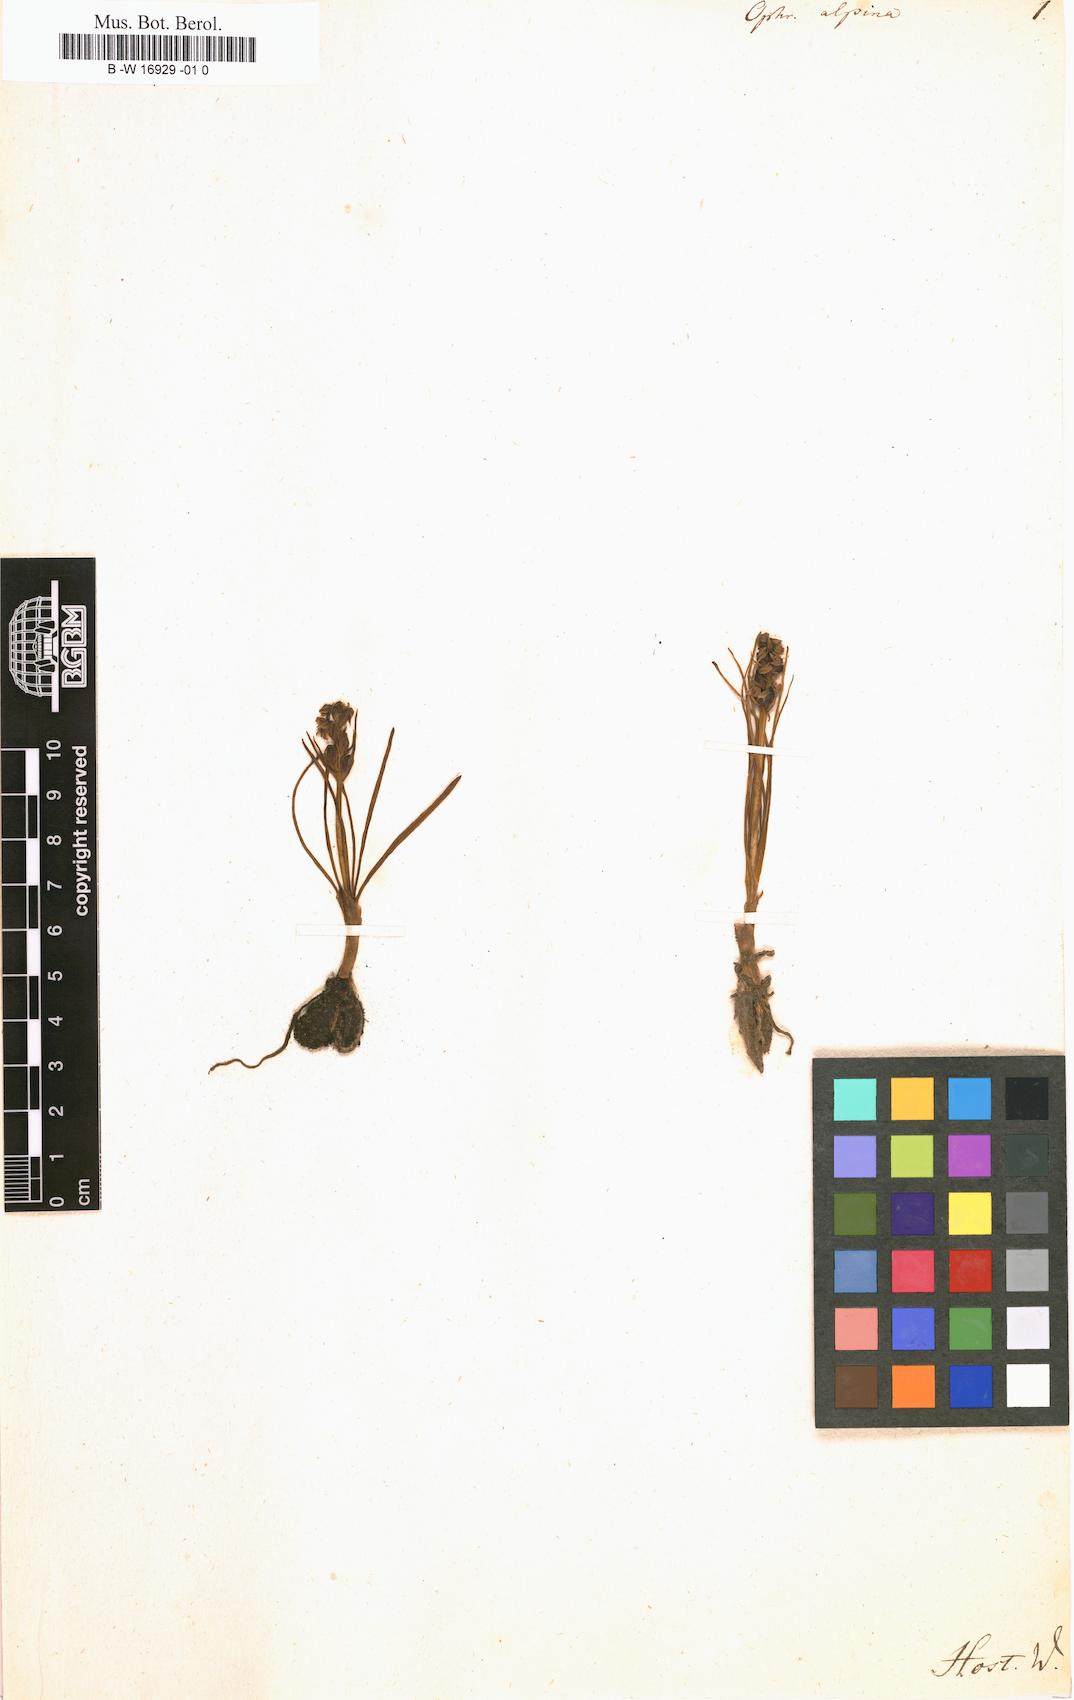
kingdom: Plantae
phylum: Tracheophyta
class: Liliopsida
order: Asparagales
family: Orchidaceae
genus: Chamorchis
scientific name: Chamorchis alpina
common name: Alpine chamorchis
